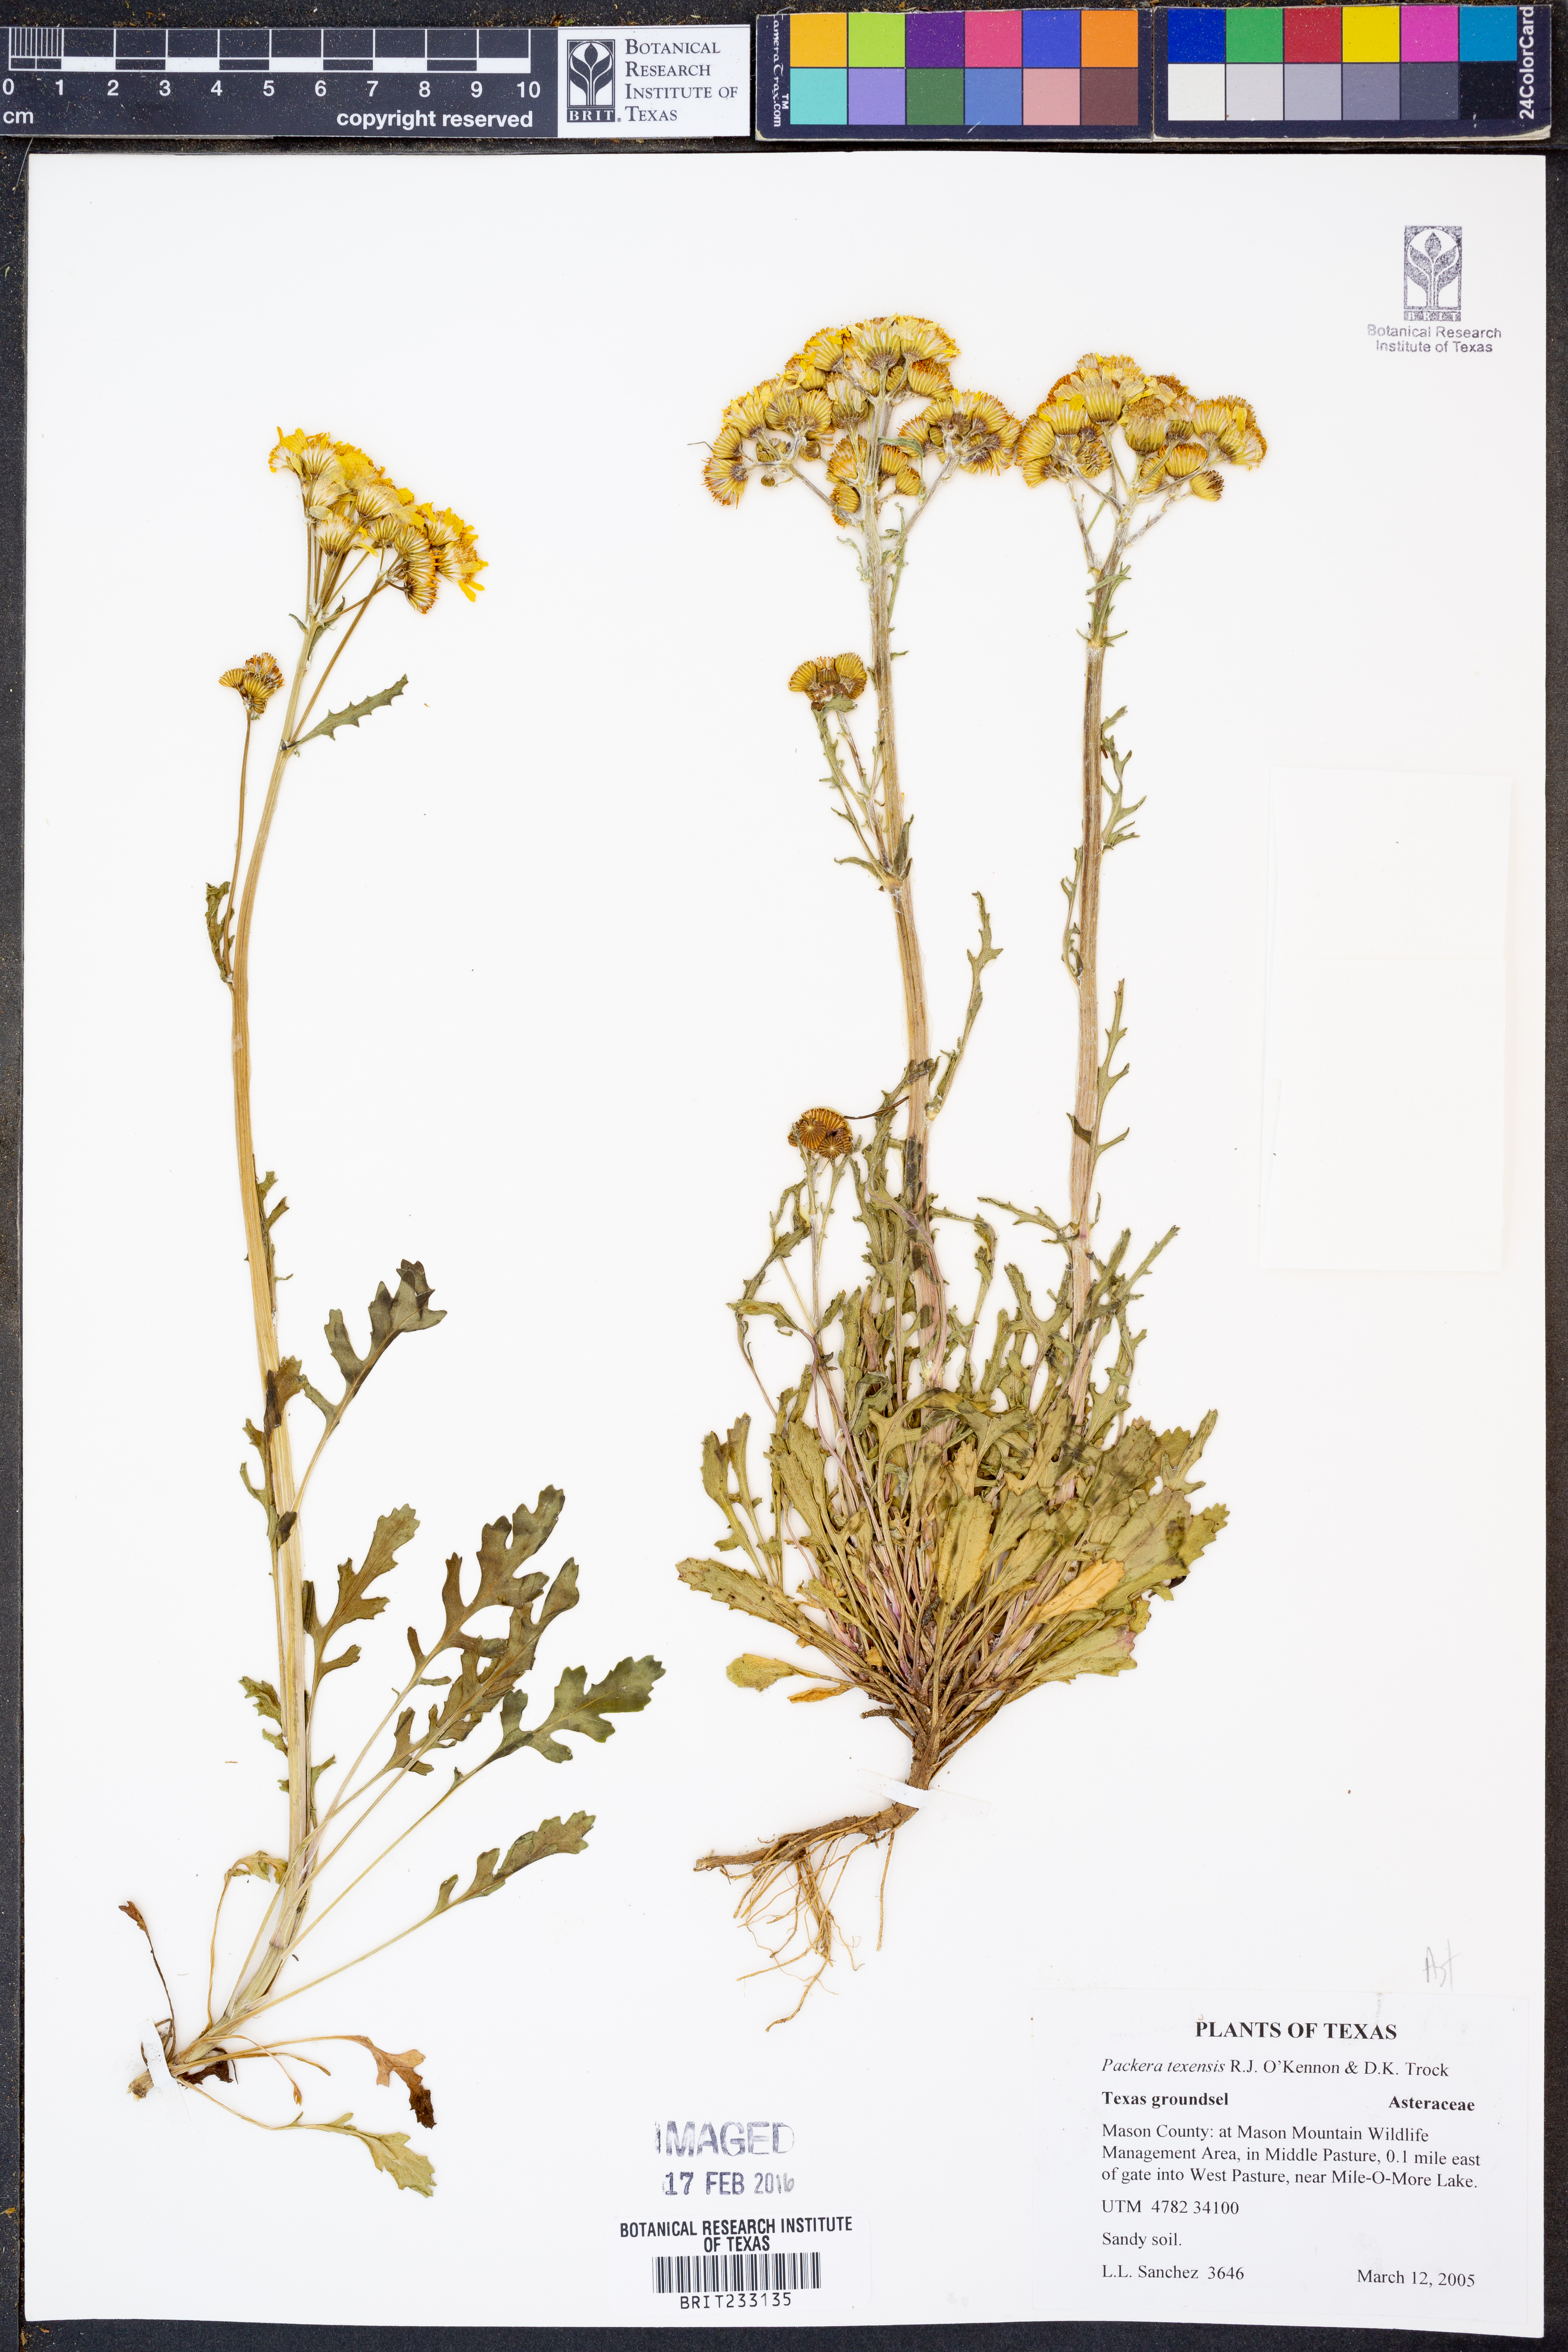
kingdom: Plantae
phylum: Tracheophyta
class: Magnoliopsida
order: Asterales
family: Asteraceae
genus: Packera
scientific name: Packera texensis
